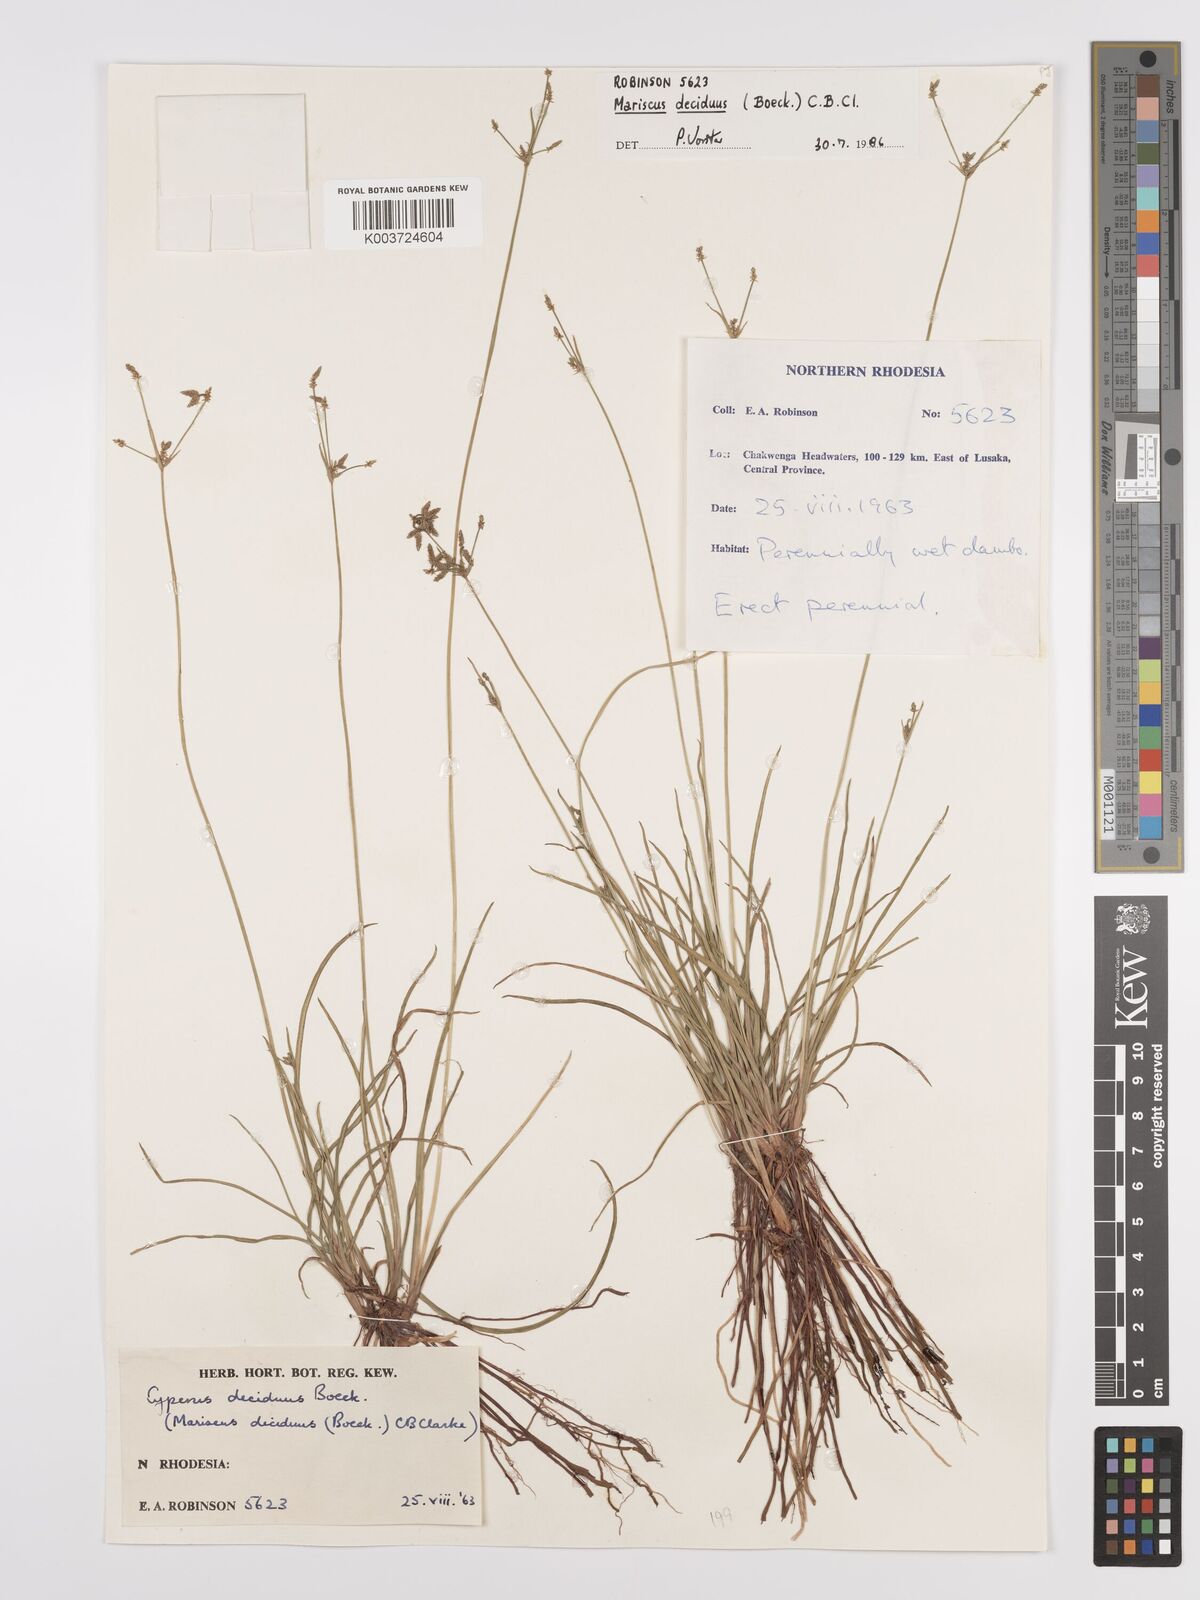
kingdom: Plantae
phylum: Tracheophyta
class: Liliopsida
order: Poales
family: Cyperaceae
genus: Cyperus
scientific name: Cyperus deciduus
